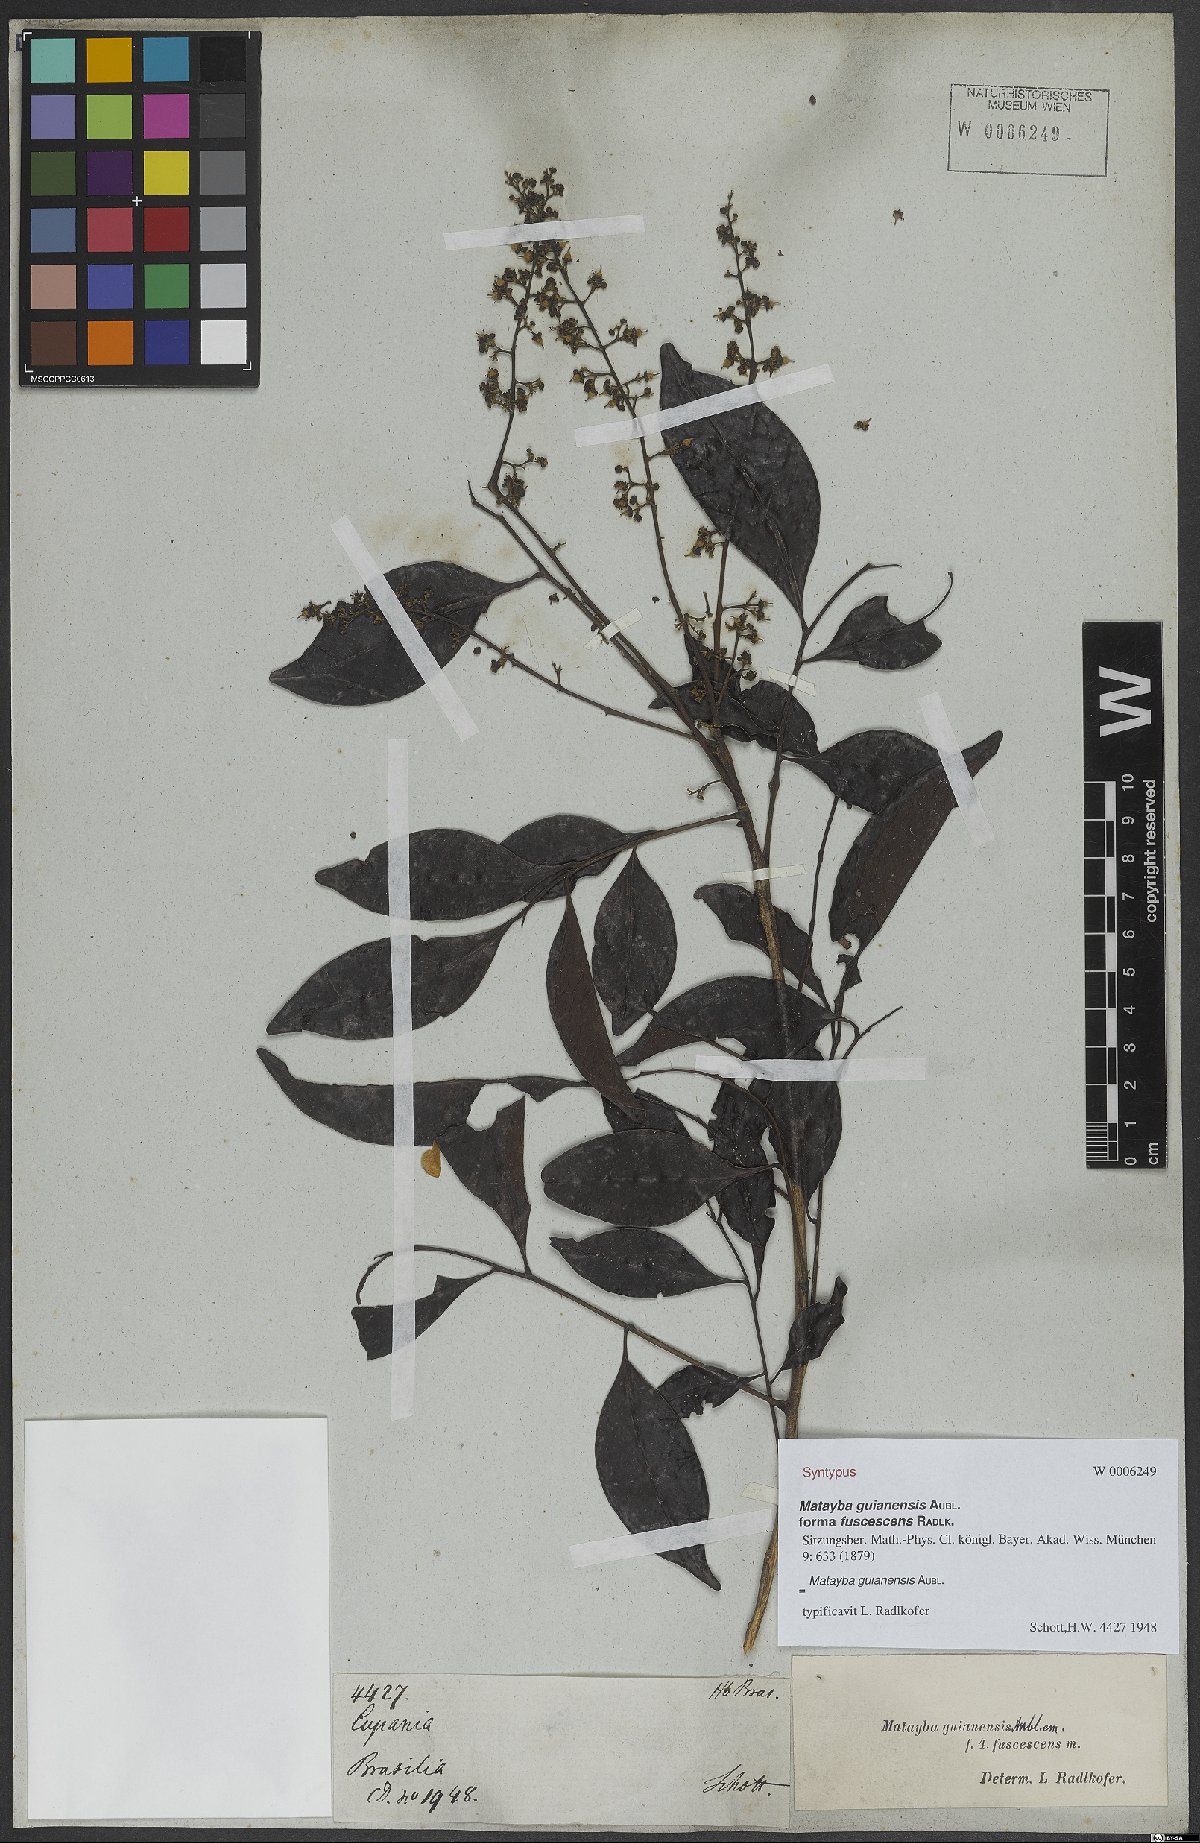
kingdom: Plantae
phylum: Tracheophyta
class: Magnoliopsida
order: Sapindales
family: Sapindaceae
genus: Matayba
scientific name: Matayba guianensis
